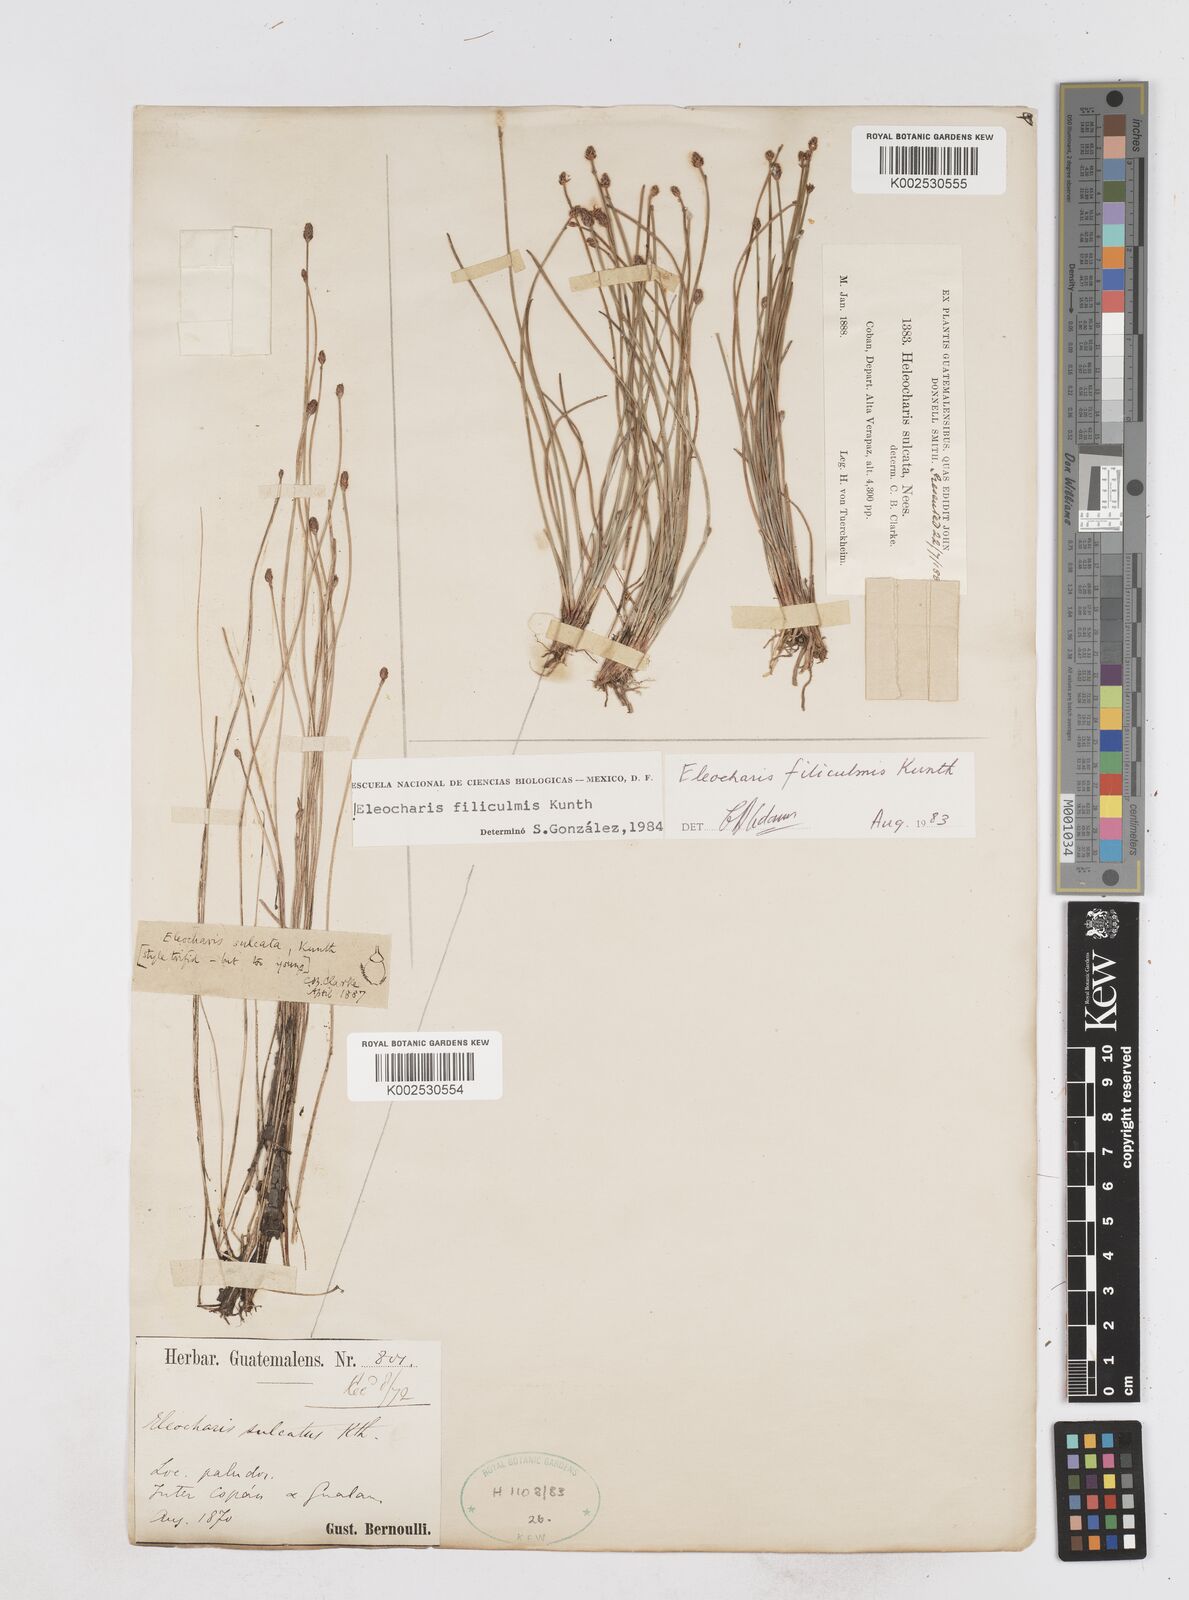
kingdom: Plantae
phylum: Tracheophyta
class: Liliopsida
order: Poales
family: Cyperaceae
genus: Eleocharis
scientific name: Eleocharis filiculmis
